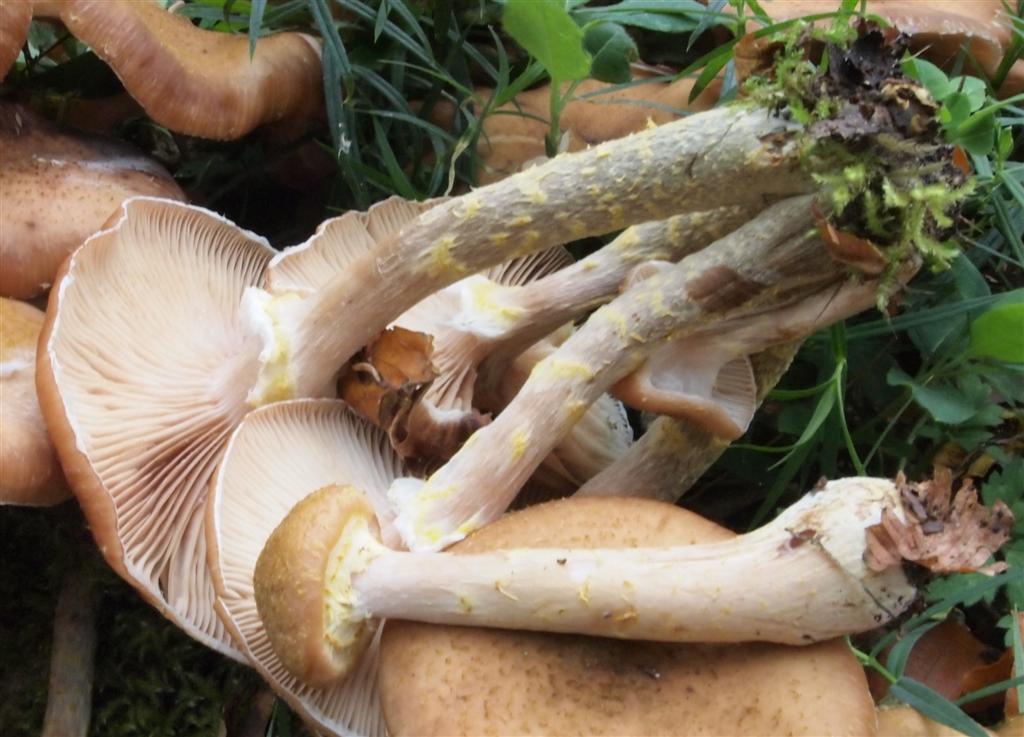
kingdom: Fungi
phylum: Basidiomycota
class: Agaricomycetes
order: Agaricales
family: Physalacriaceae
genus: Armillaria
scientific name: Armillaria lutea
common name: køllestokket honningsvamp
